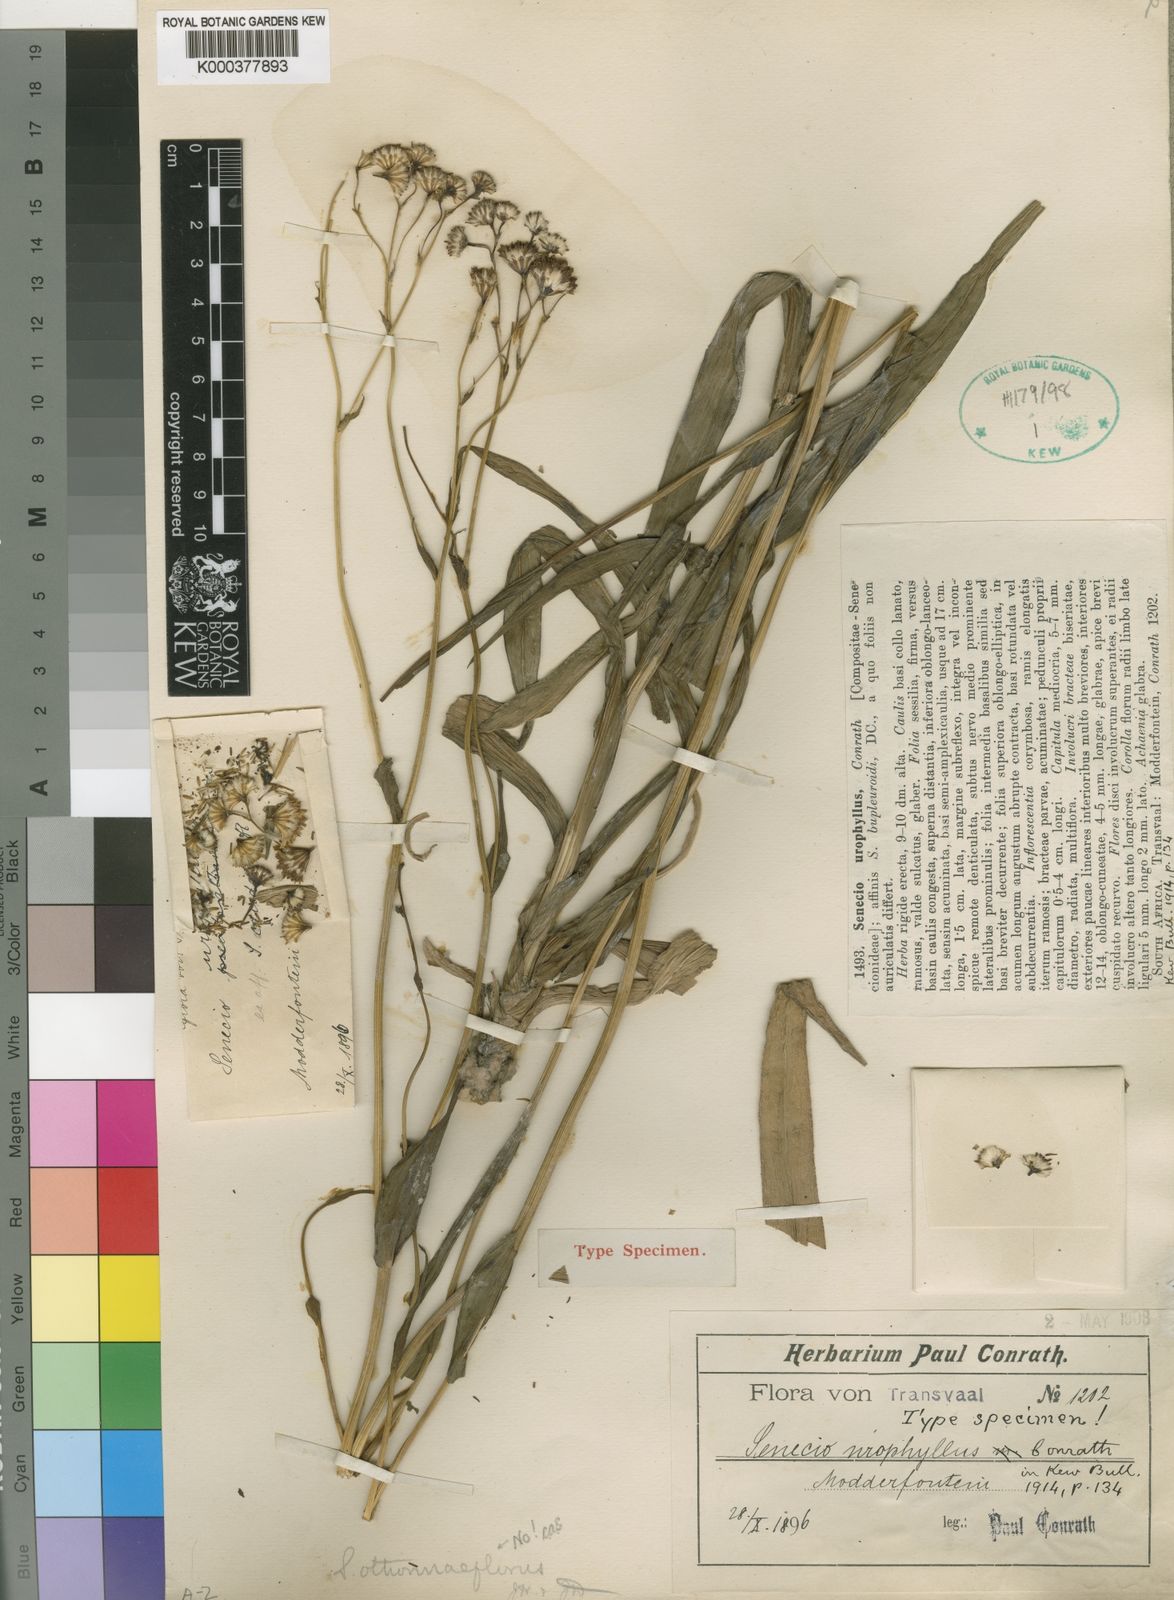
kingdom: Plantae
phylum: Tracheophyta
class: Magnoliopsida
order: Asterales
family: Asteraceae
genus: Senecio
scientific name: Senecio urophyllus
